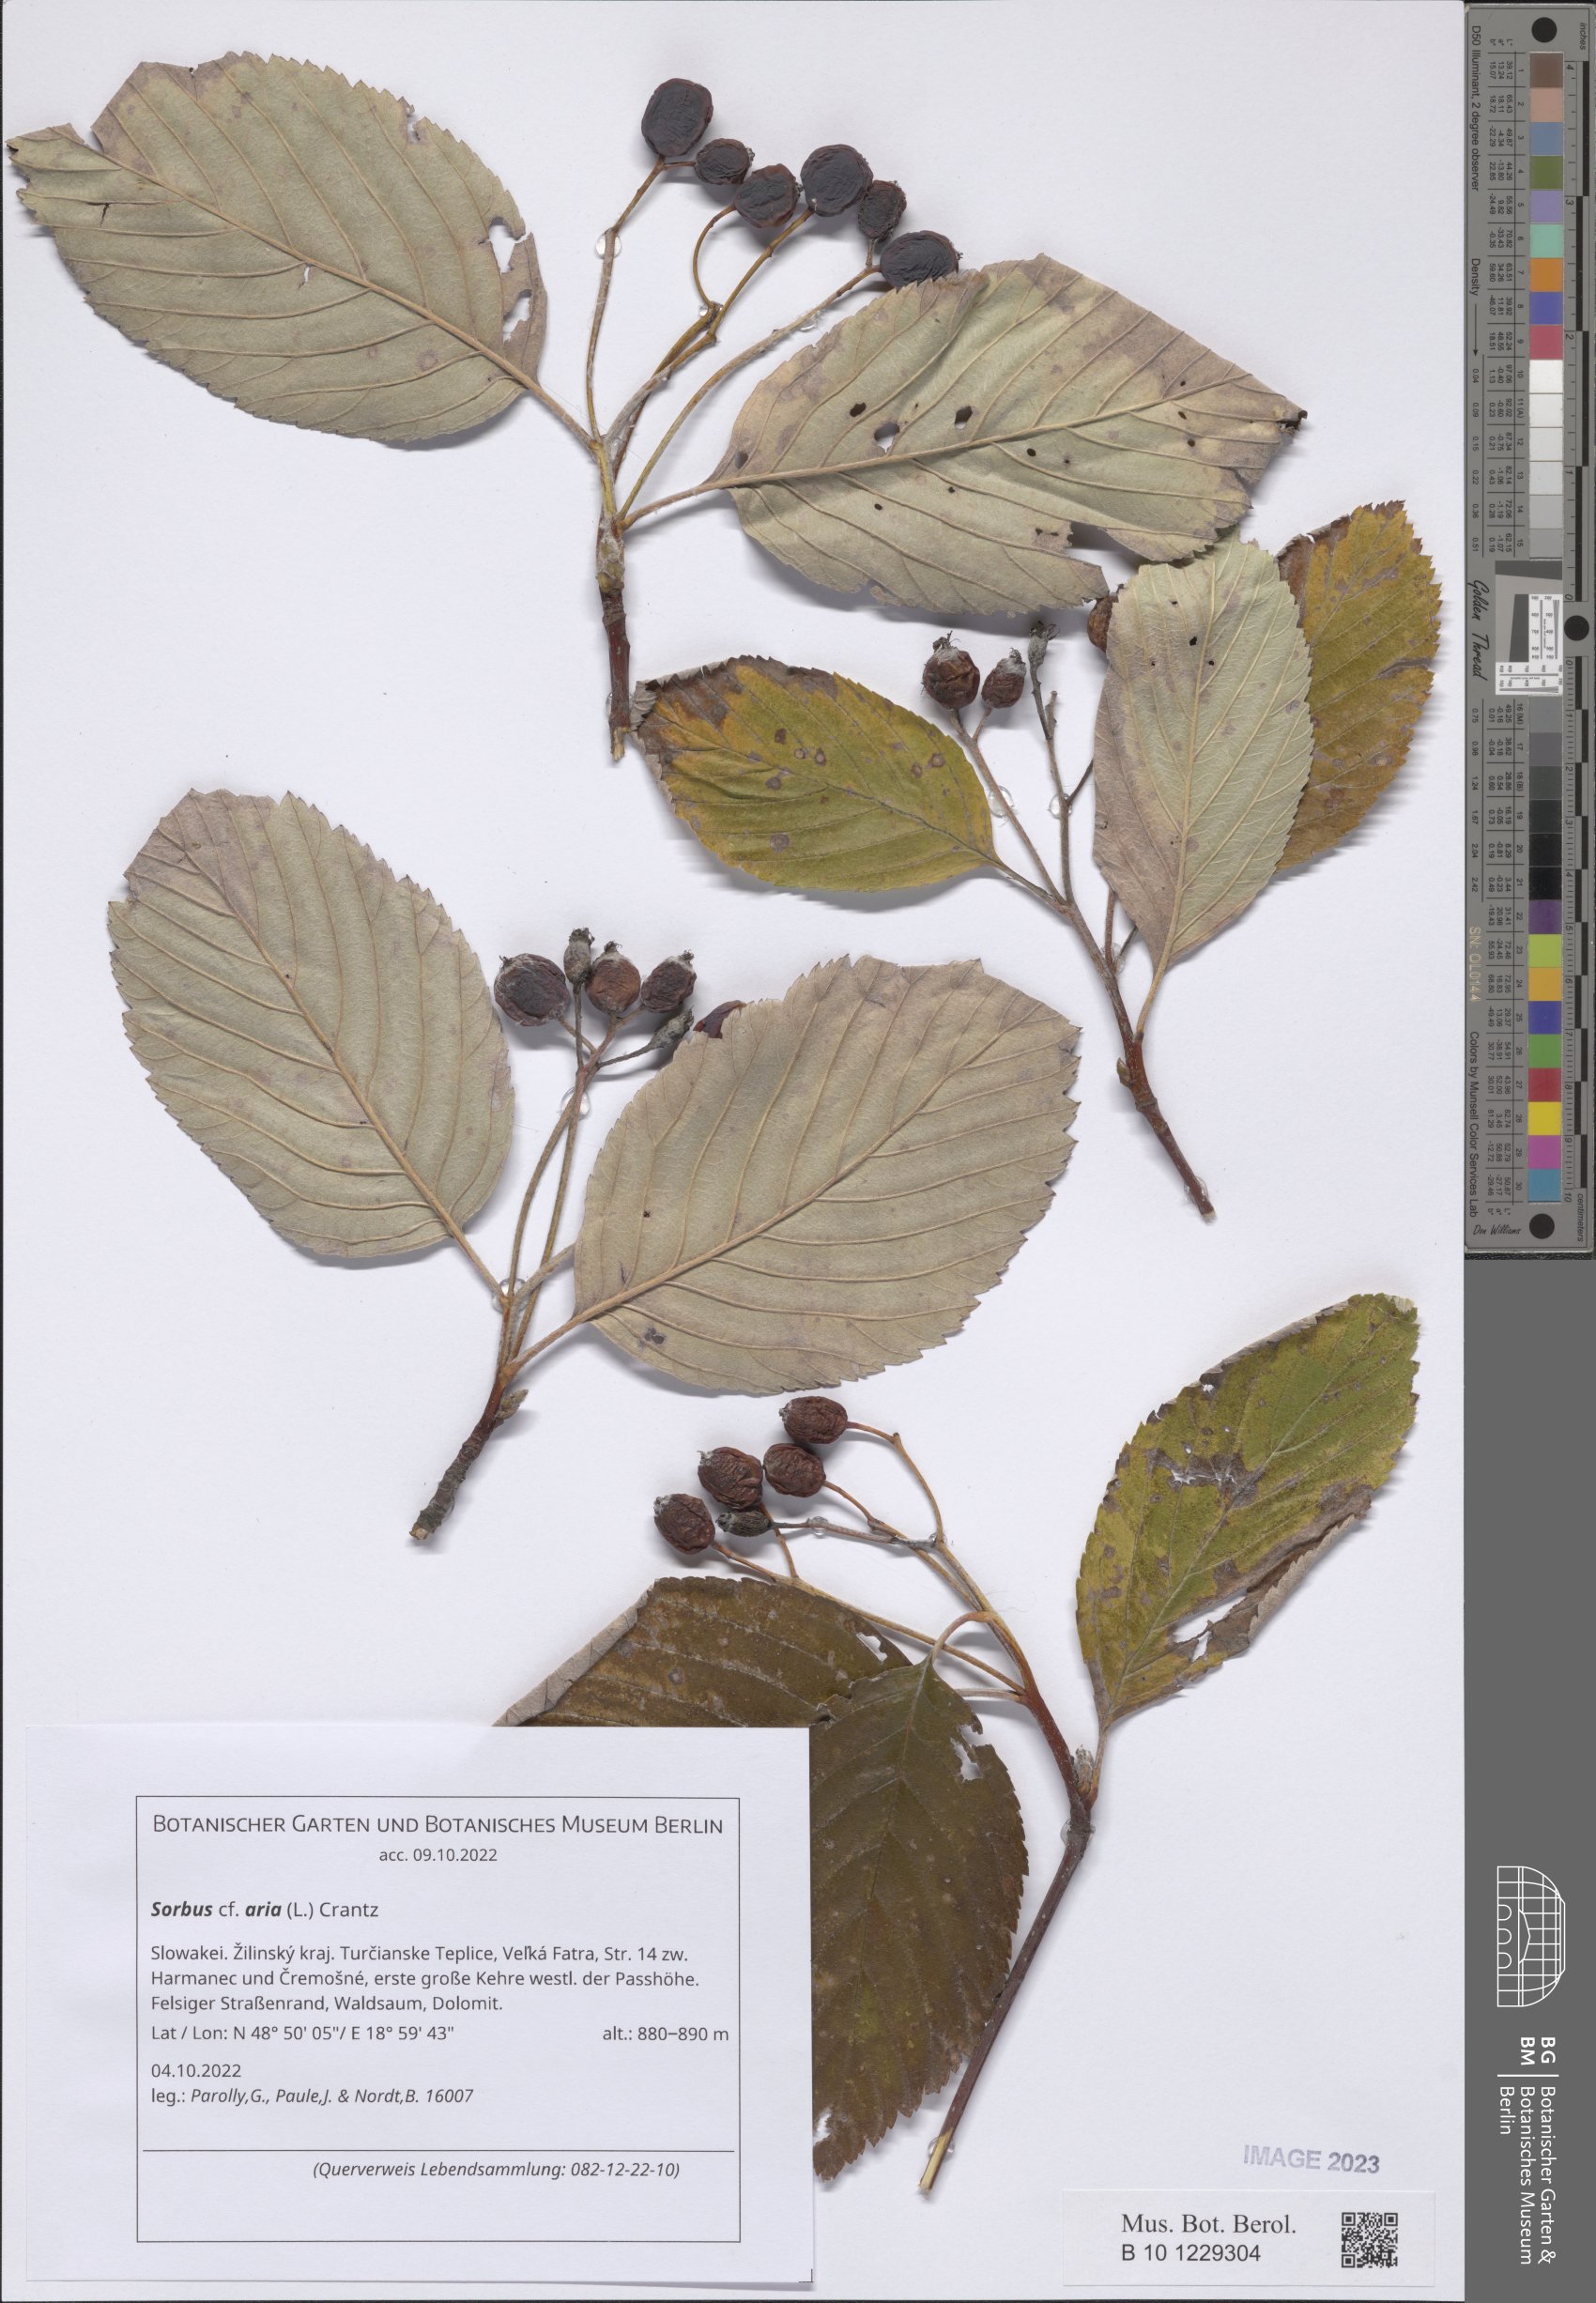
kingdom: Plantae
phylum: Tracheophyta
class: Magnoliopsida
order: Rosales
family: Rosaceae
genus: Aria
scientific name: Aria edulis
